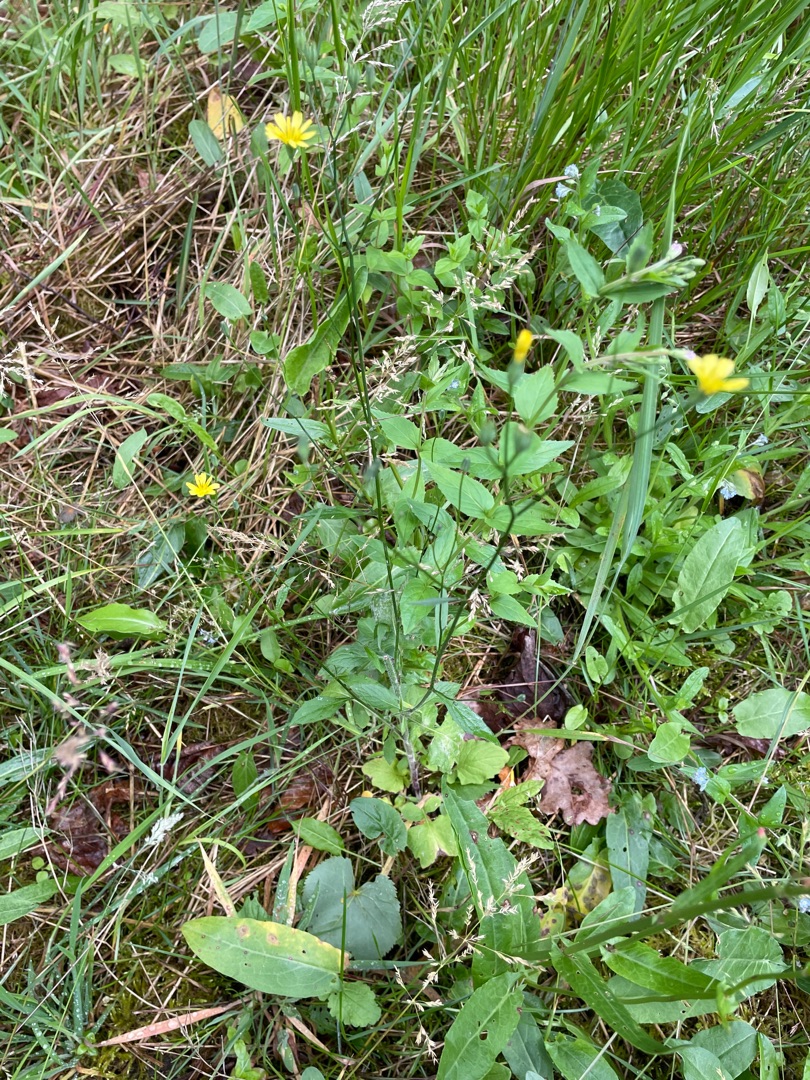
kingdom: Plantae
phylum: Tracheophyta
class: Magnoliopsida
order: Asterales
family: Asteraceae
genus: Lapsana
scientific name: Lapsana communis
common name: Haremad
